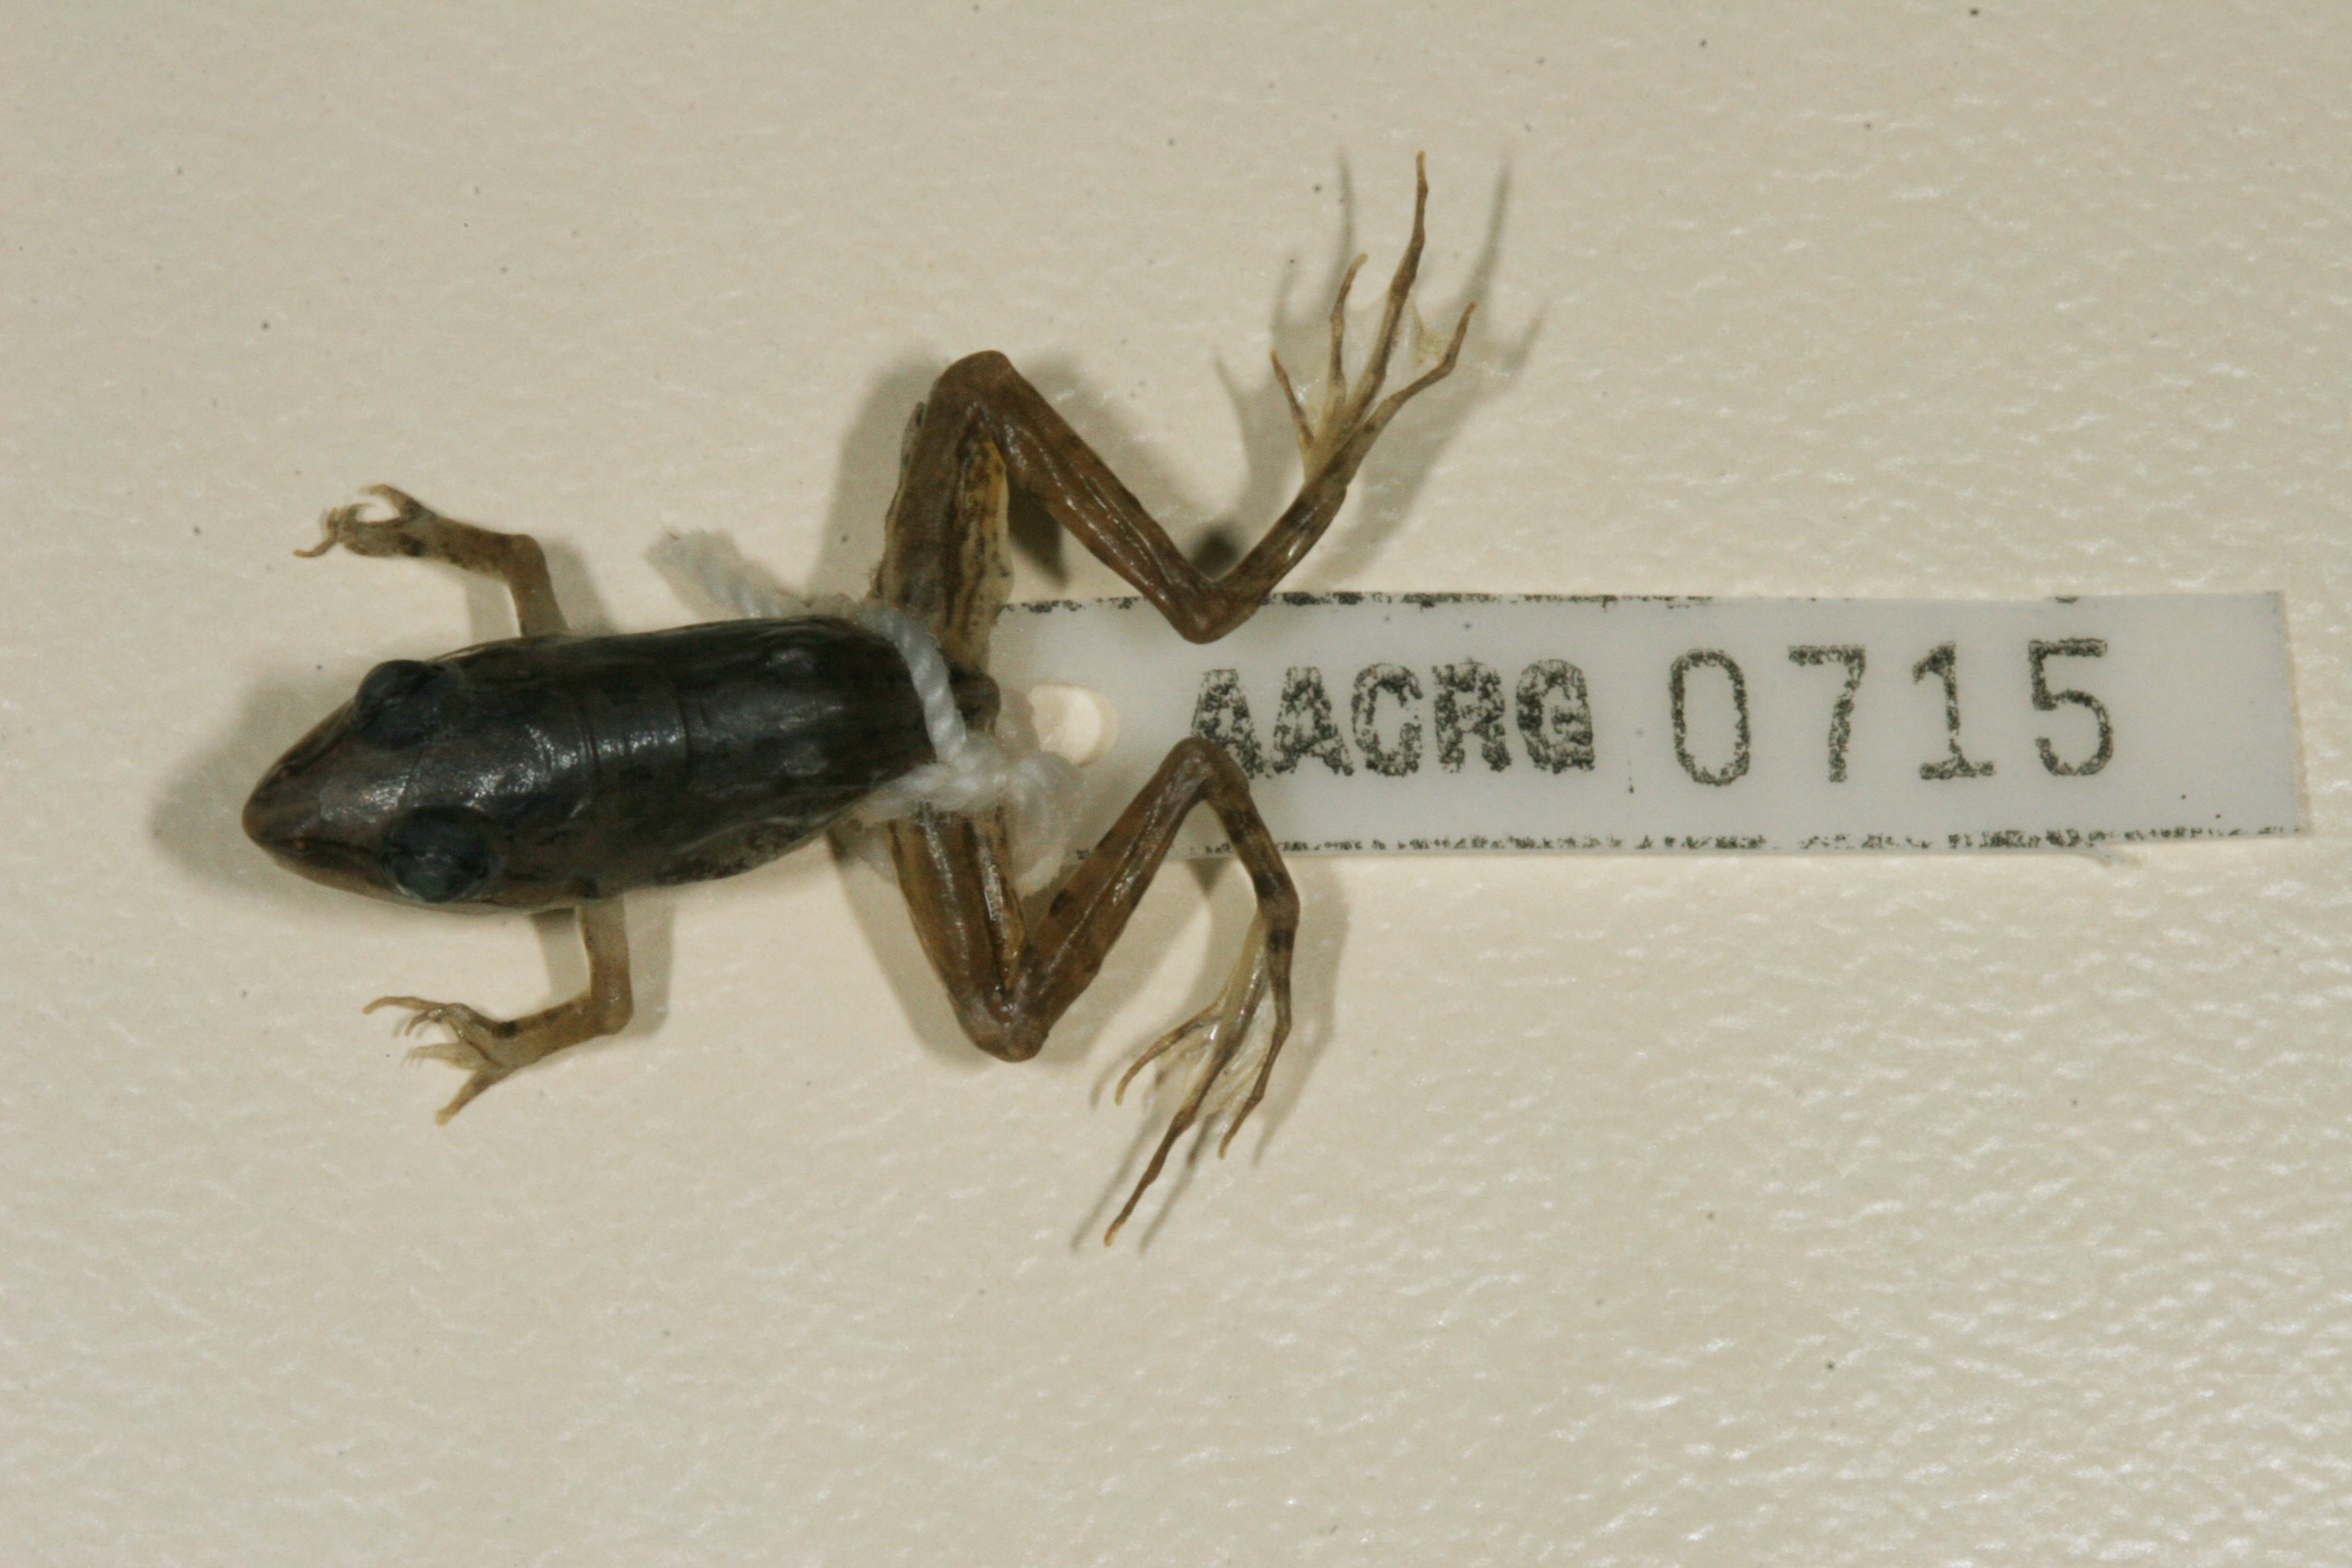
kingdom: Animalia
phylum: Chordata
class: Amphibia
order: Anura
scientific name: Anura
